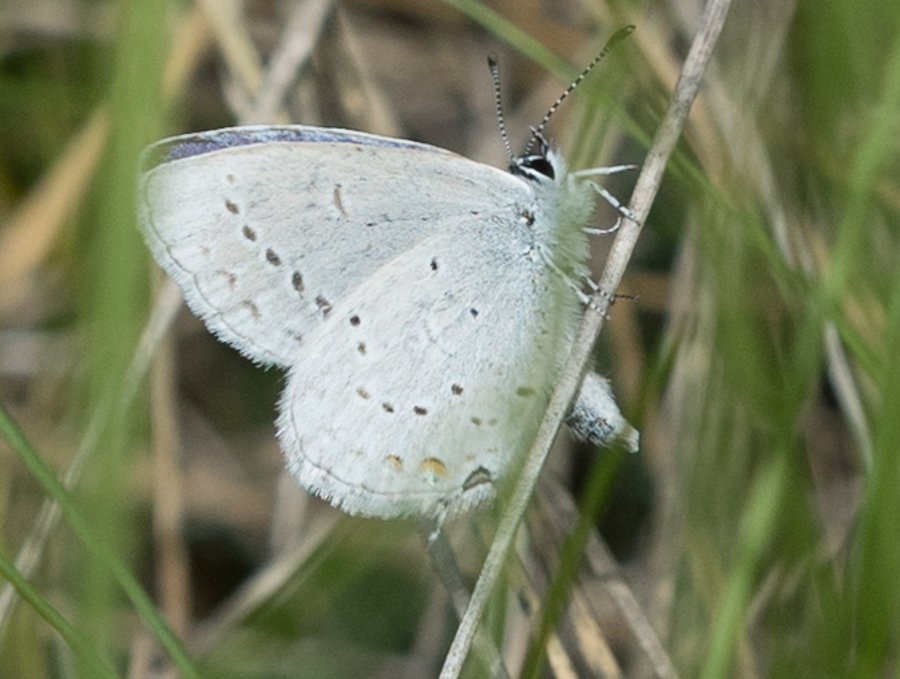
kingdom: Animalia
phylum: Arthropoda
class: Insecta
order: Lepidoptera
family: Lycaenidae
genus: Elkalyce
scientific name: Elkalyce amyntula
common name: Western Tailed-Blue
